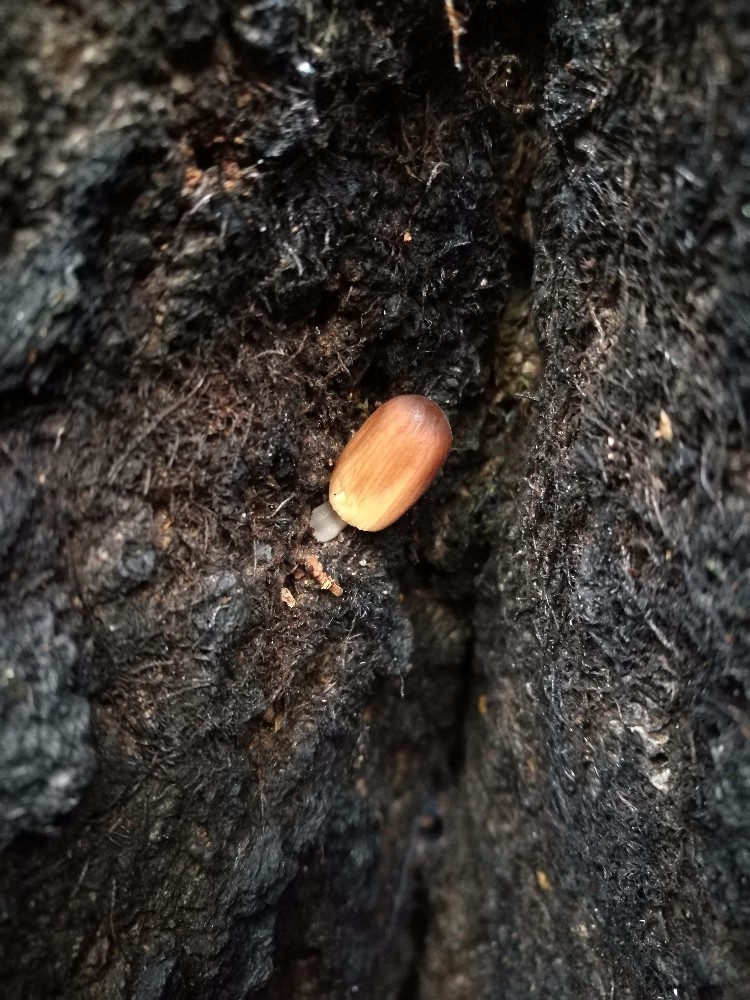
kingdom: Fungi
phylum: Basidiomycota
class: Agaricomycetes
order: Agaricales
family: Psathyrellaceae
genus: Tulosesus
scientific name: Tulosesus angulatus
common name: kul-blækhat
